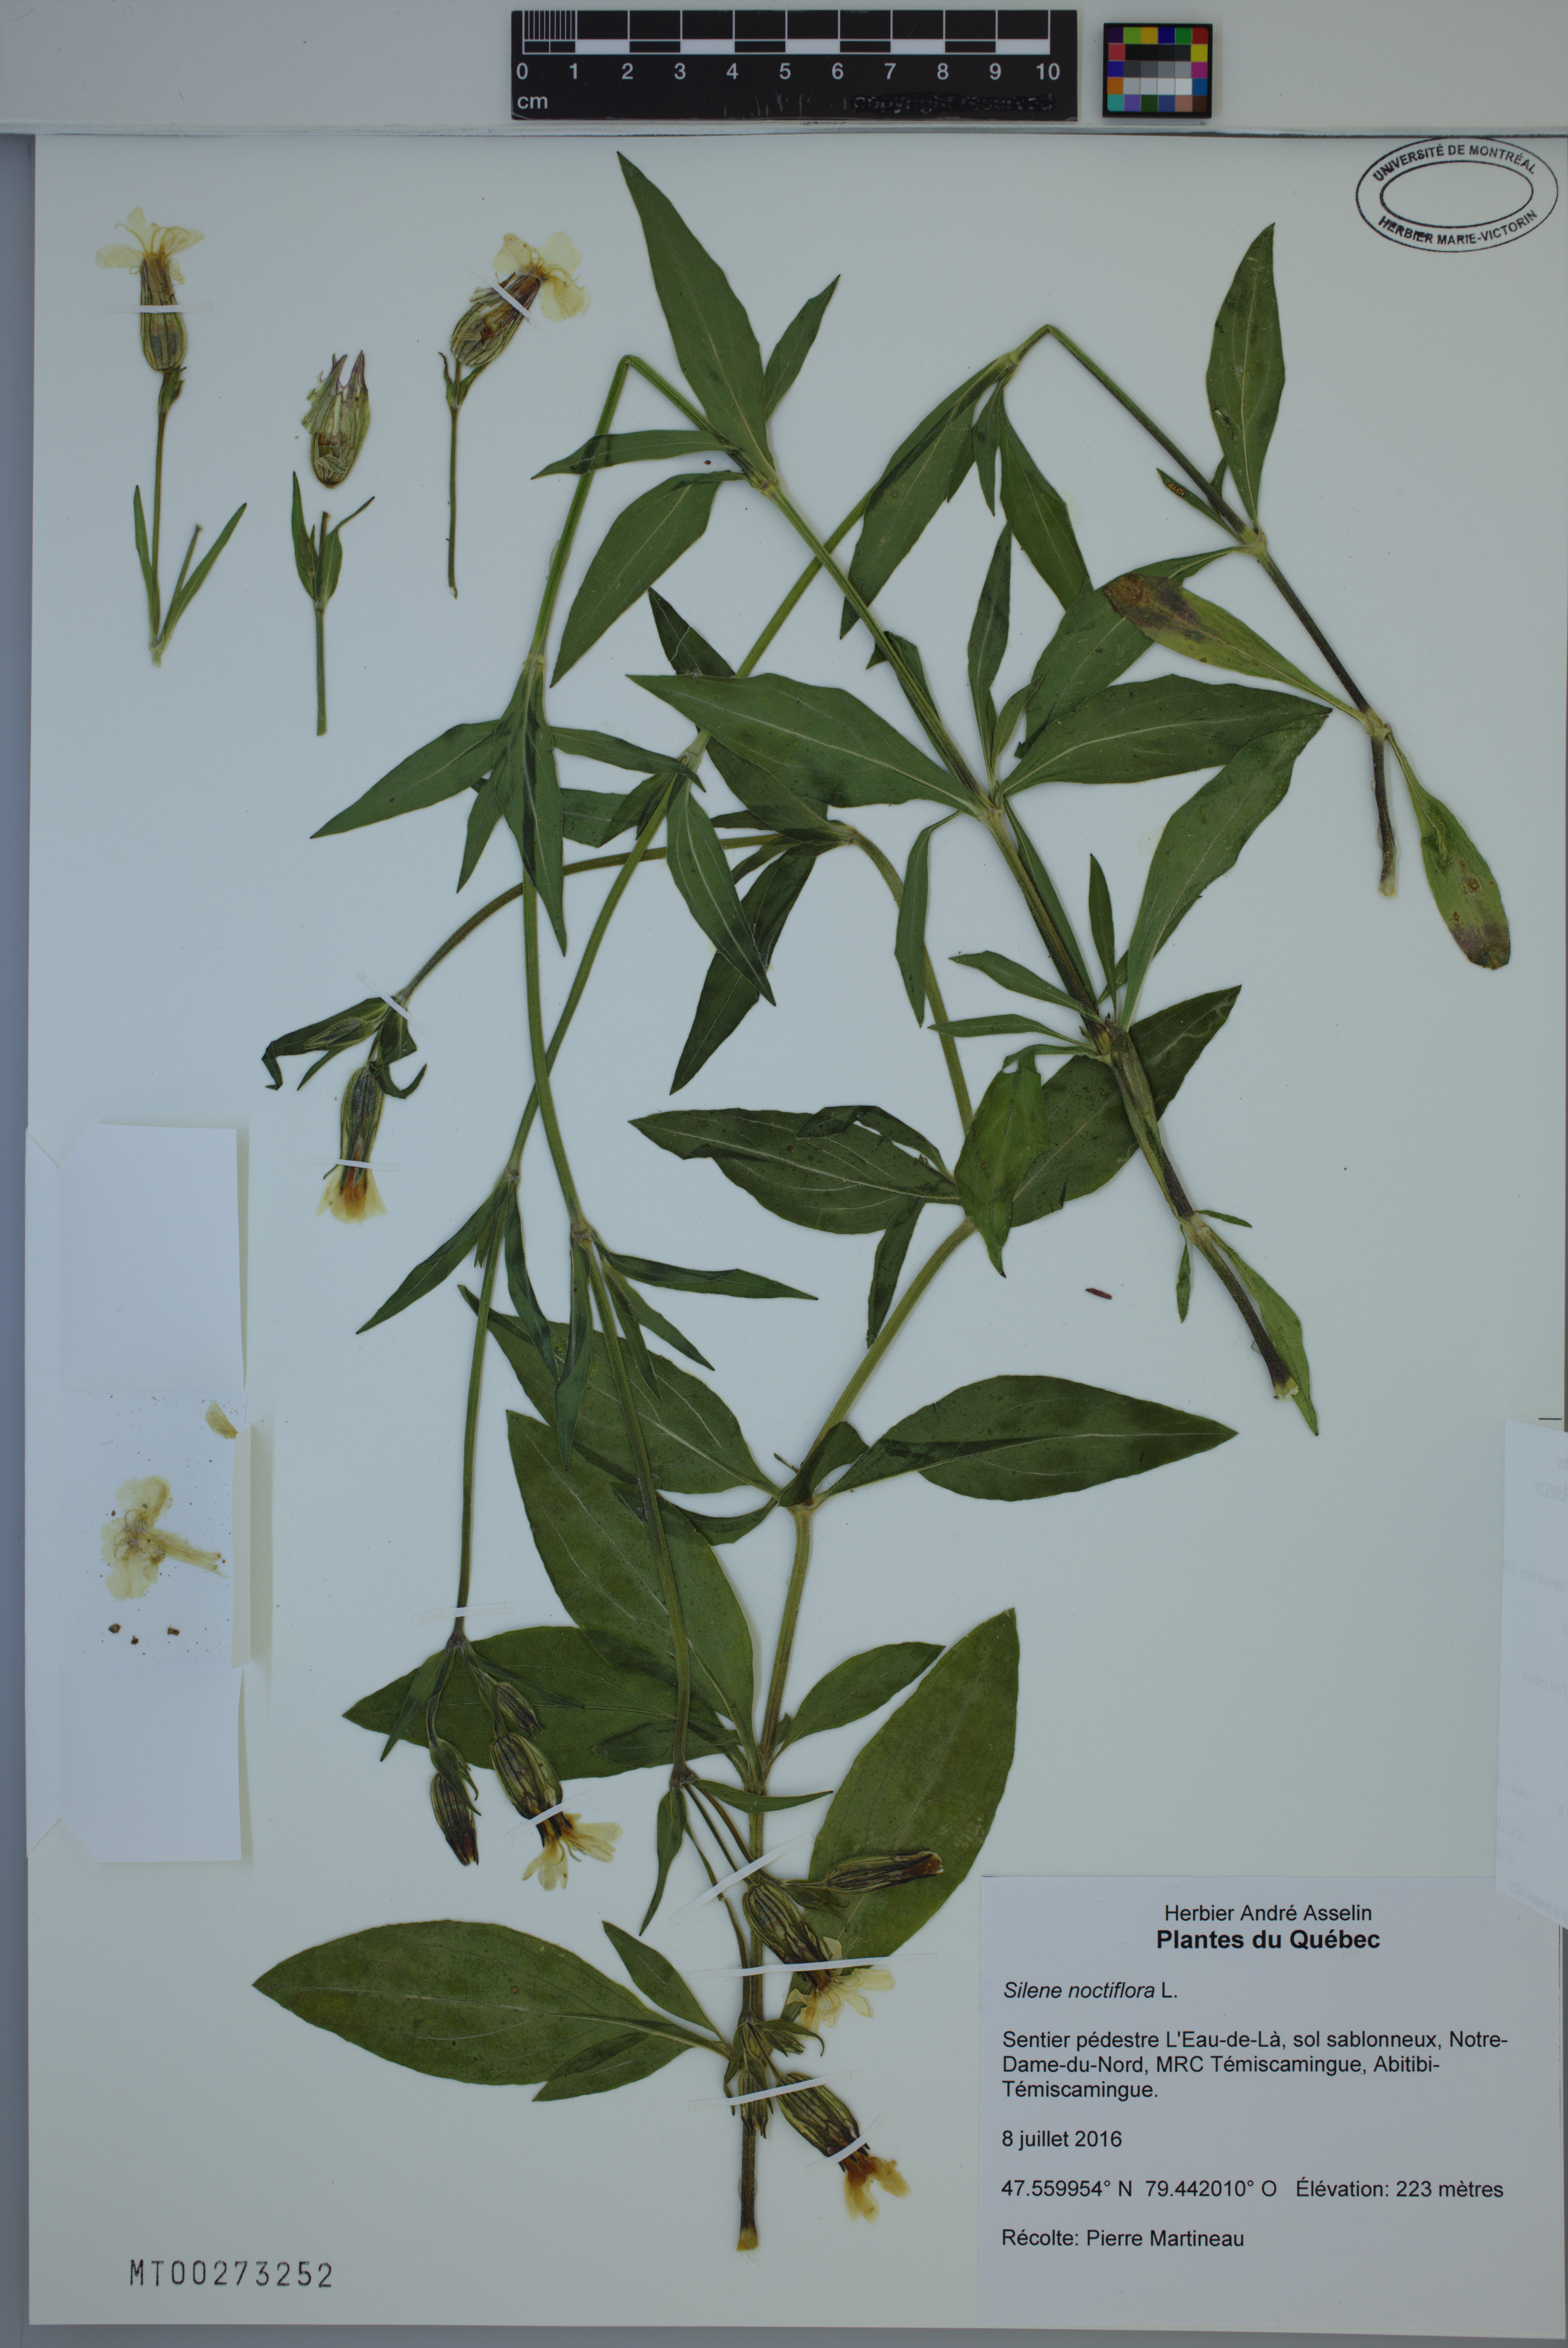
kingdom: Plantae
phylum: Tracheophyta
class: Magnoliopsida
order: Caryophyllales
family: Caryophyllaceae
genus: Silene
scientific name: Silene noctiflora
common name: Night-flowering catchfly
